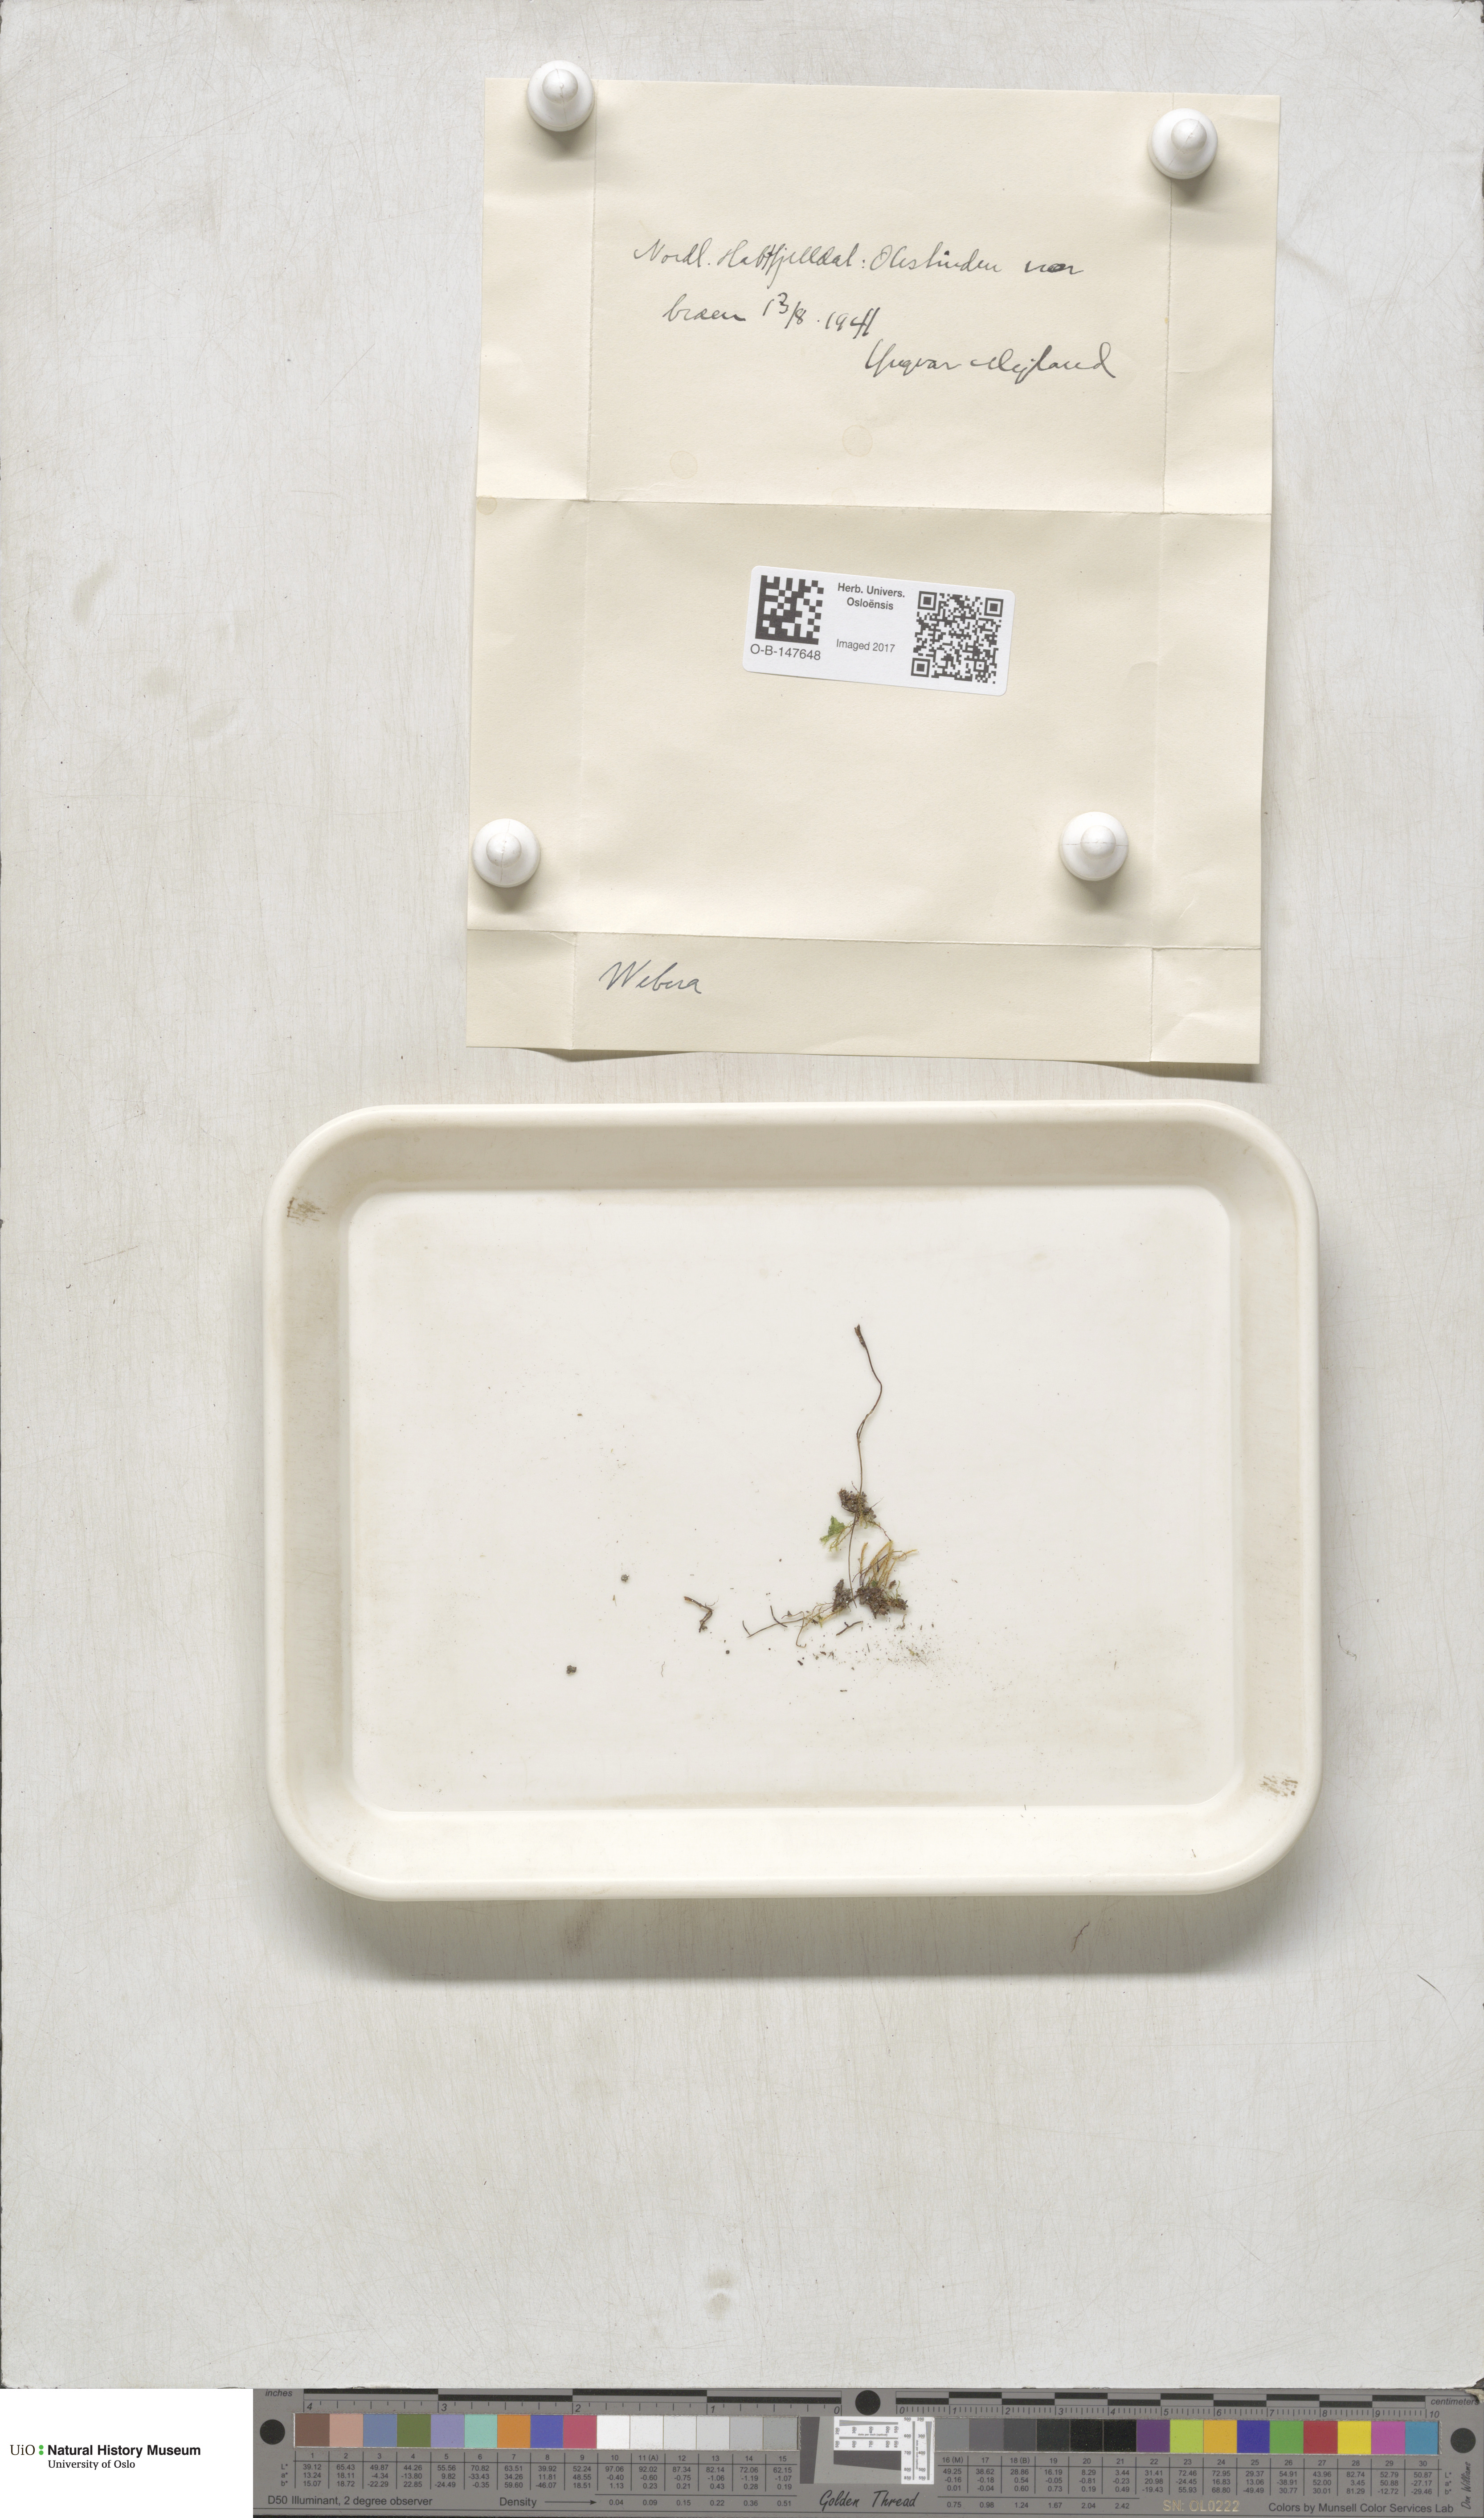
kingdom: Plantae
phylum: Bryophyta
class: Bryopsida
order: Bryales
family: Mniaceae
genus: Pohlia
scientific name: Pohlia
